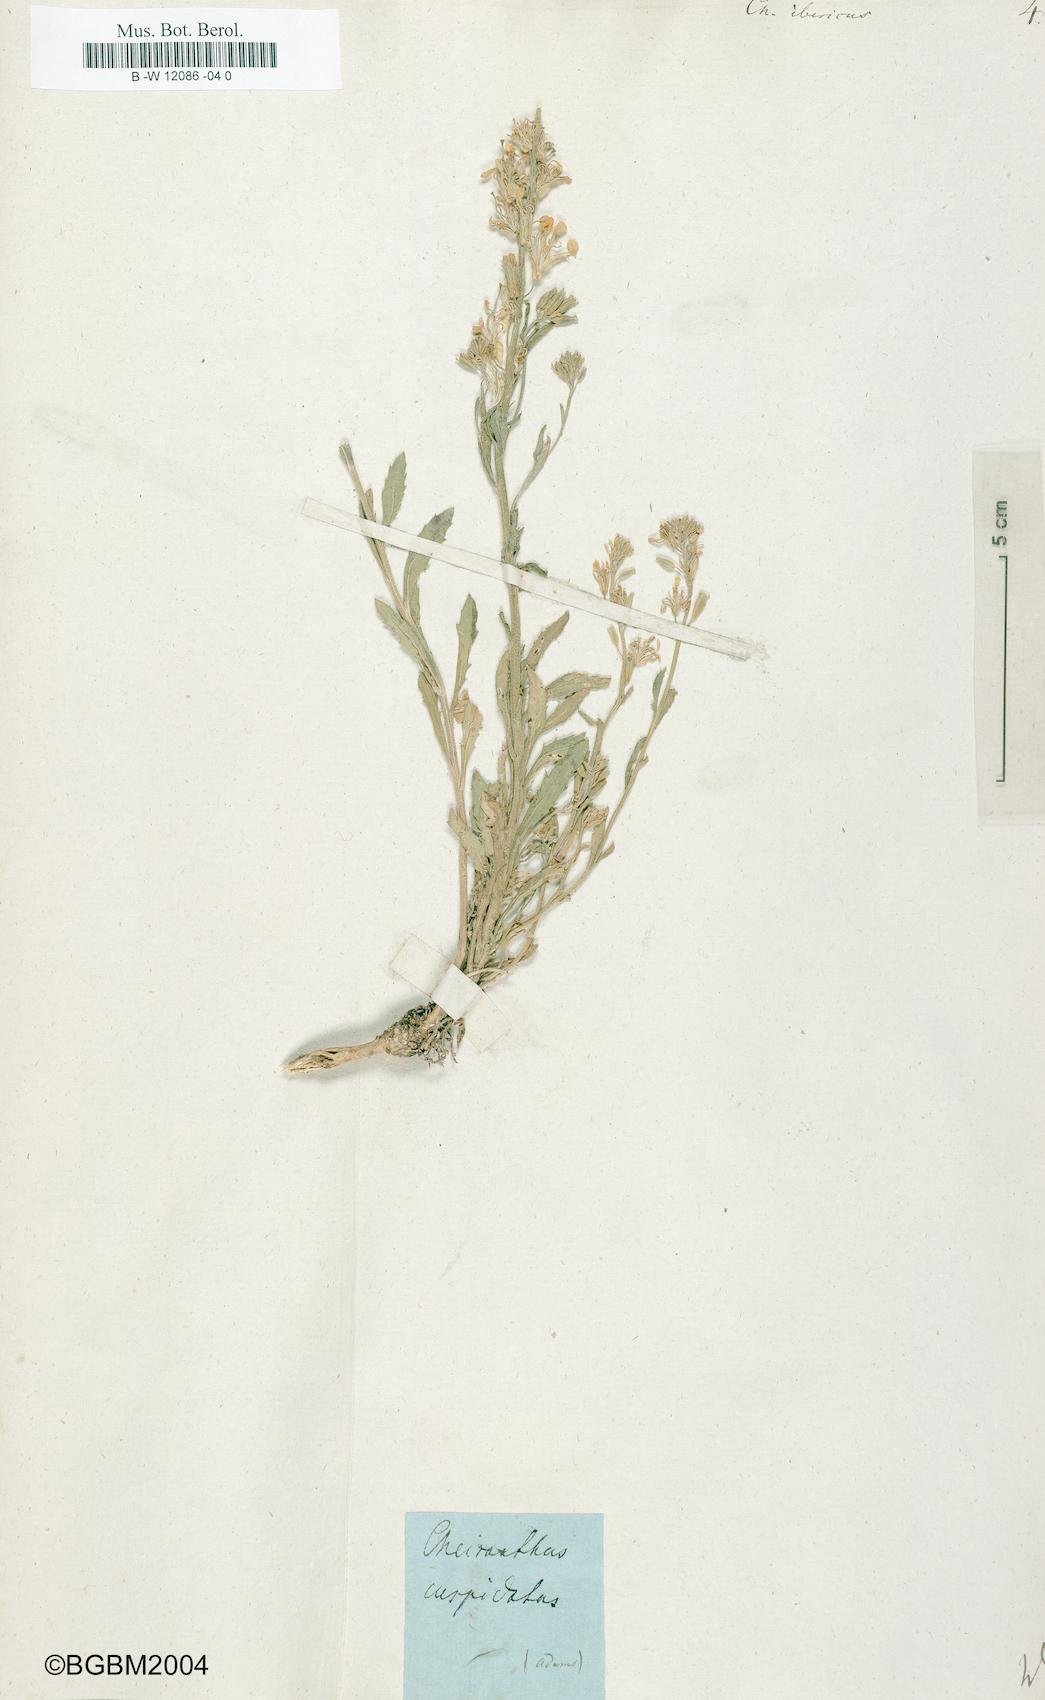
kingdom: Plantae
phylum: Tracheophyta
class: Magnoliopsida
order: Brassicales
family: Brassicaceae
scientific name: Brassicaceae
